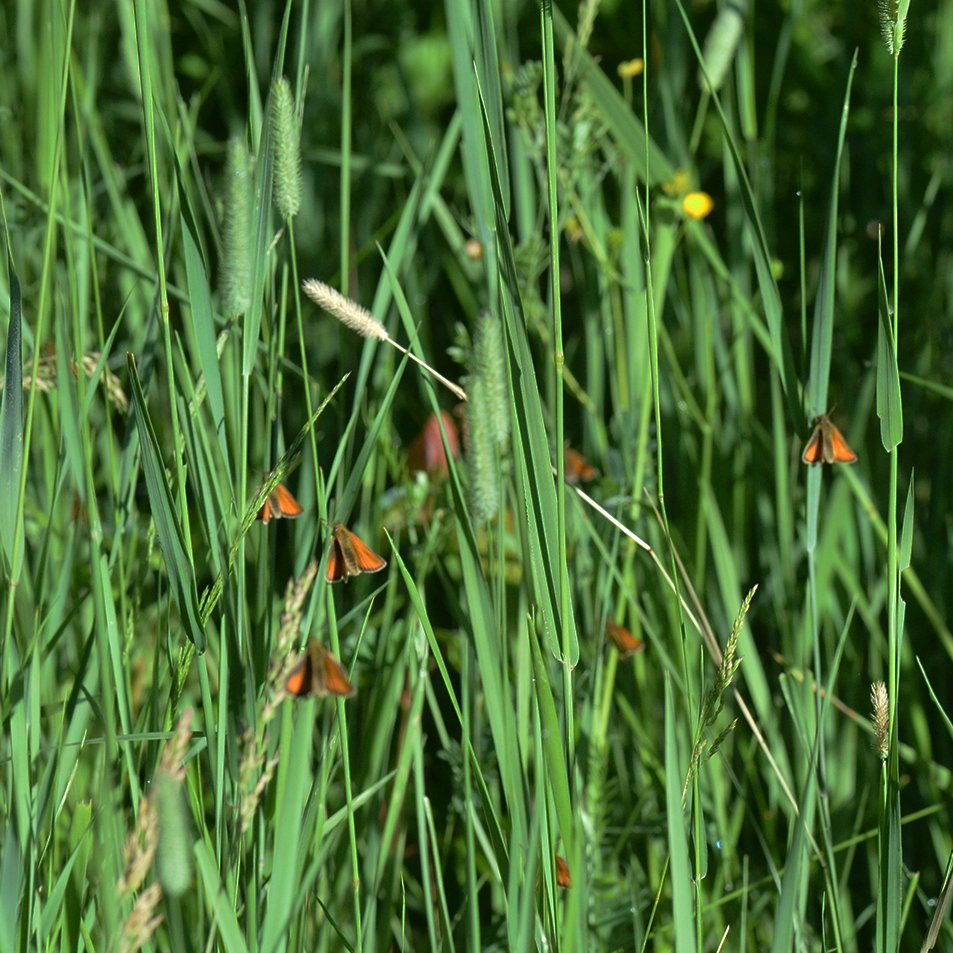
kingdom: Animalia
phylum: Arthropoda
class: Insecta
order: Lepidoptera
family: Hesperiidae
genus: Thymelicus
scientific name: Thymelicus lineola
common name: European Skipper
